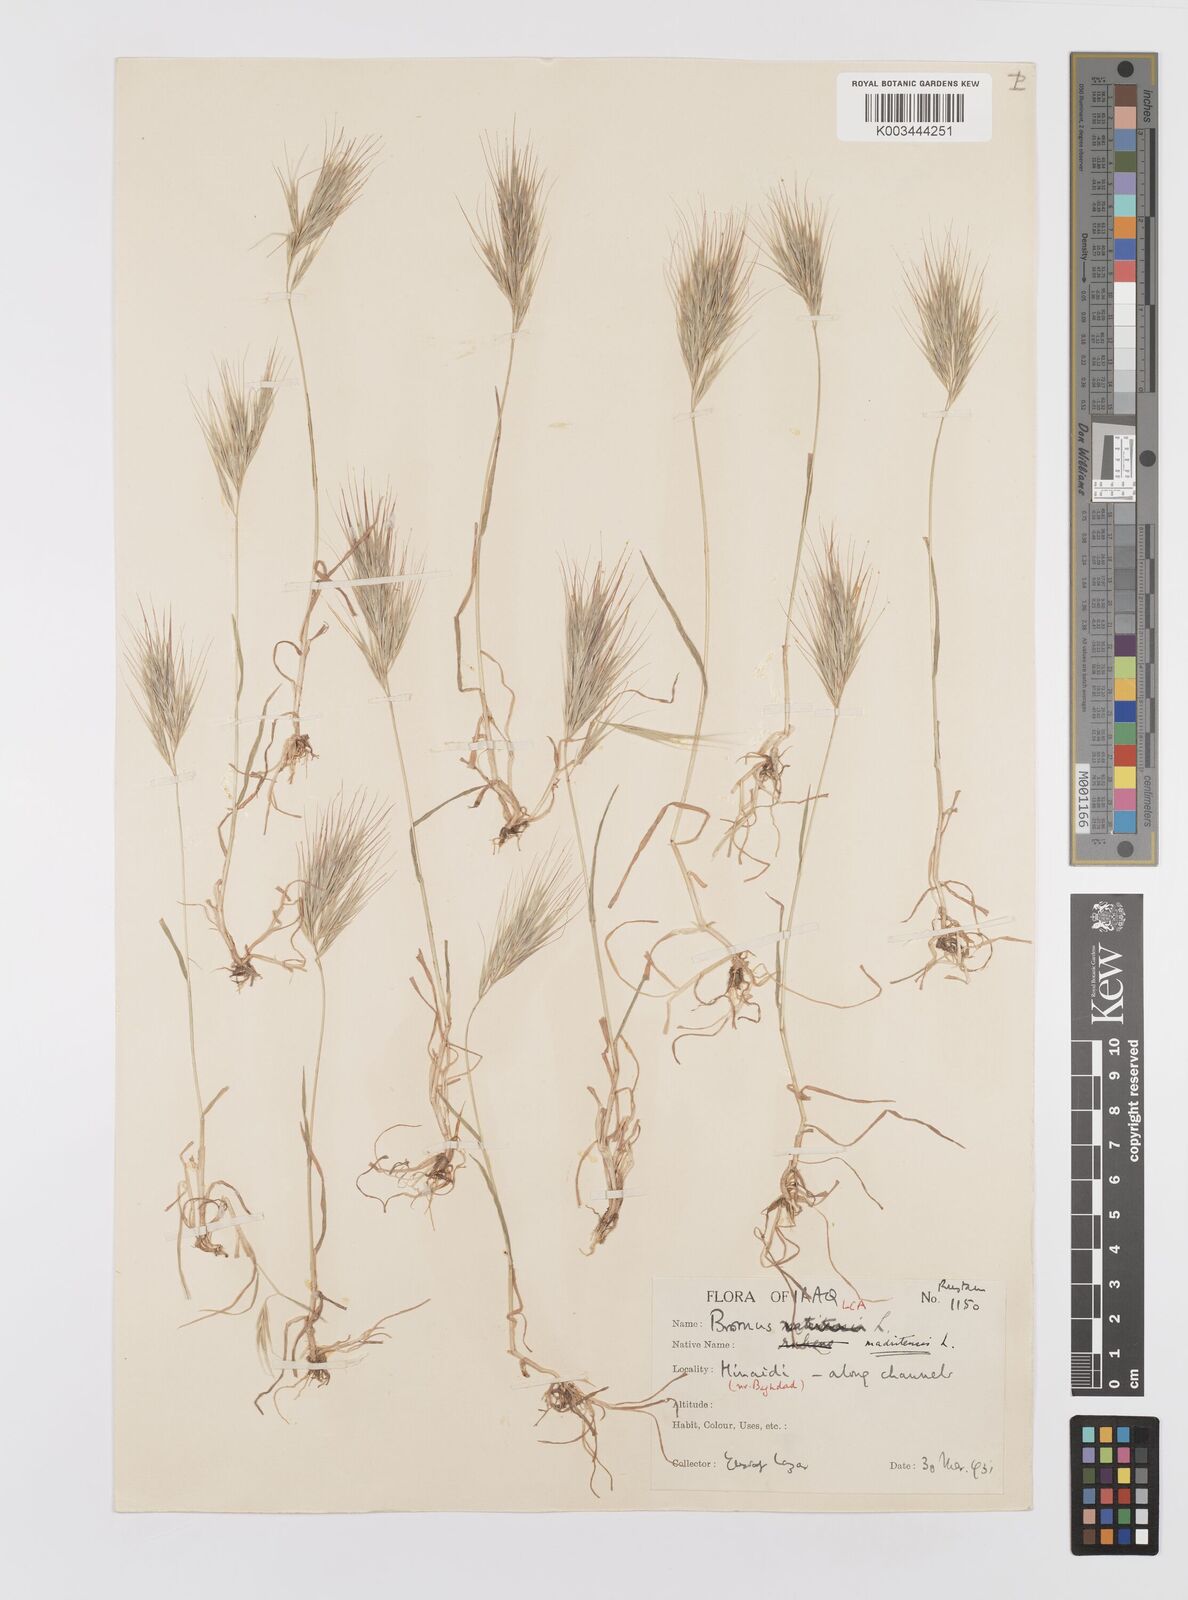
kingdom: Plantae
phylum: Tracheophyta
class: Liliopsida
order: Poales
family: Poaceae
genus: Bromus
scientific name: Bromus madritensis
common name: Compact brome
